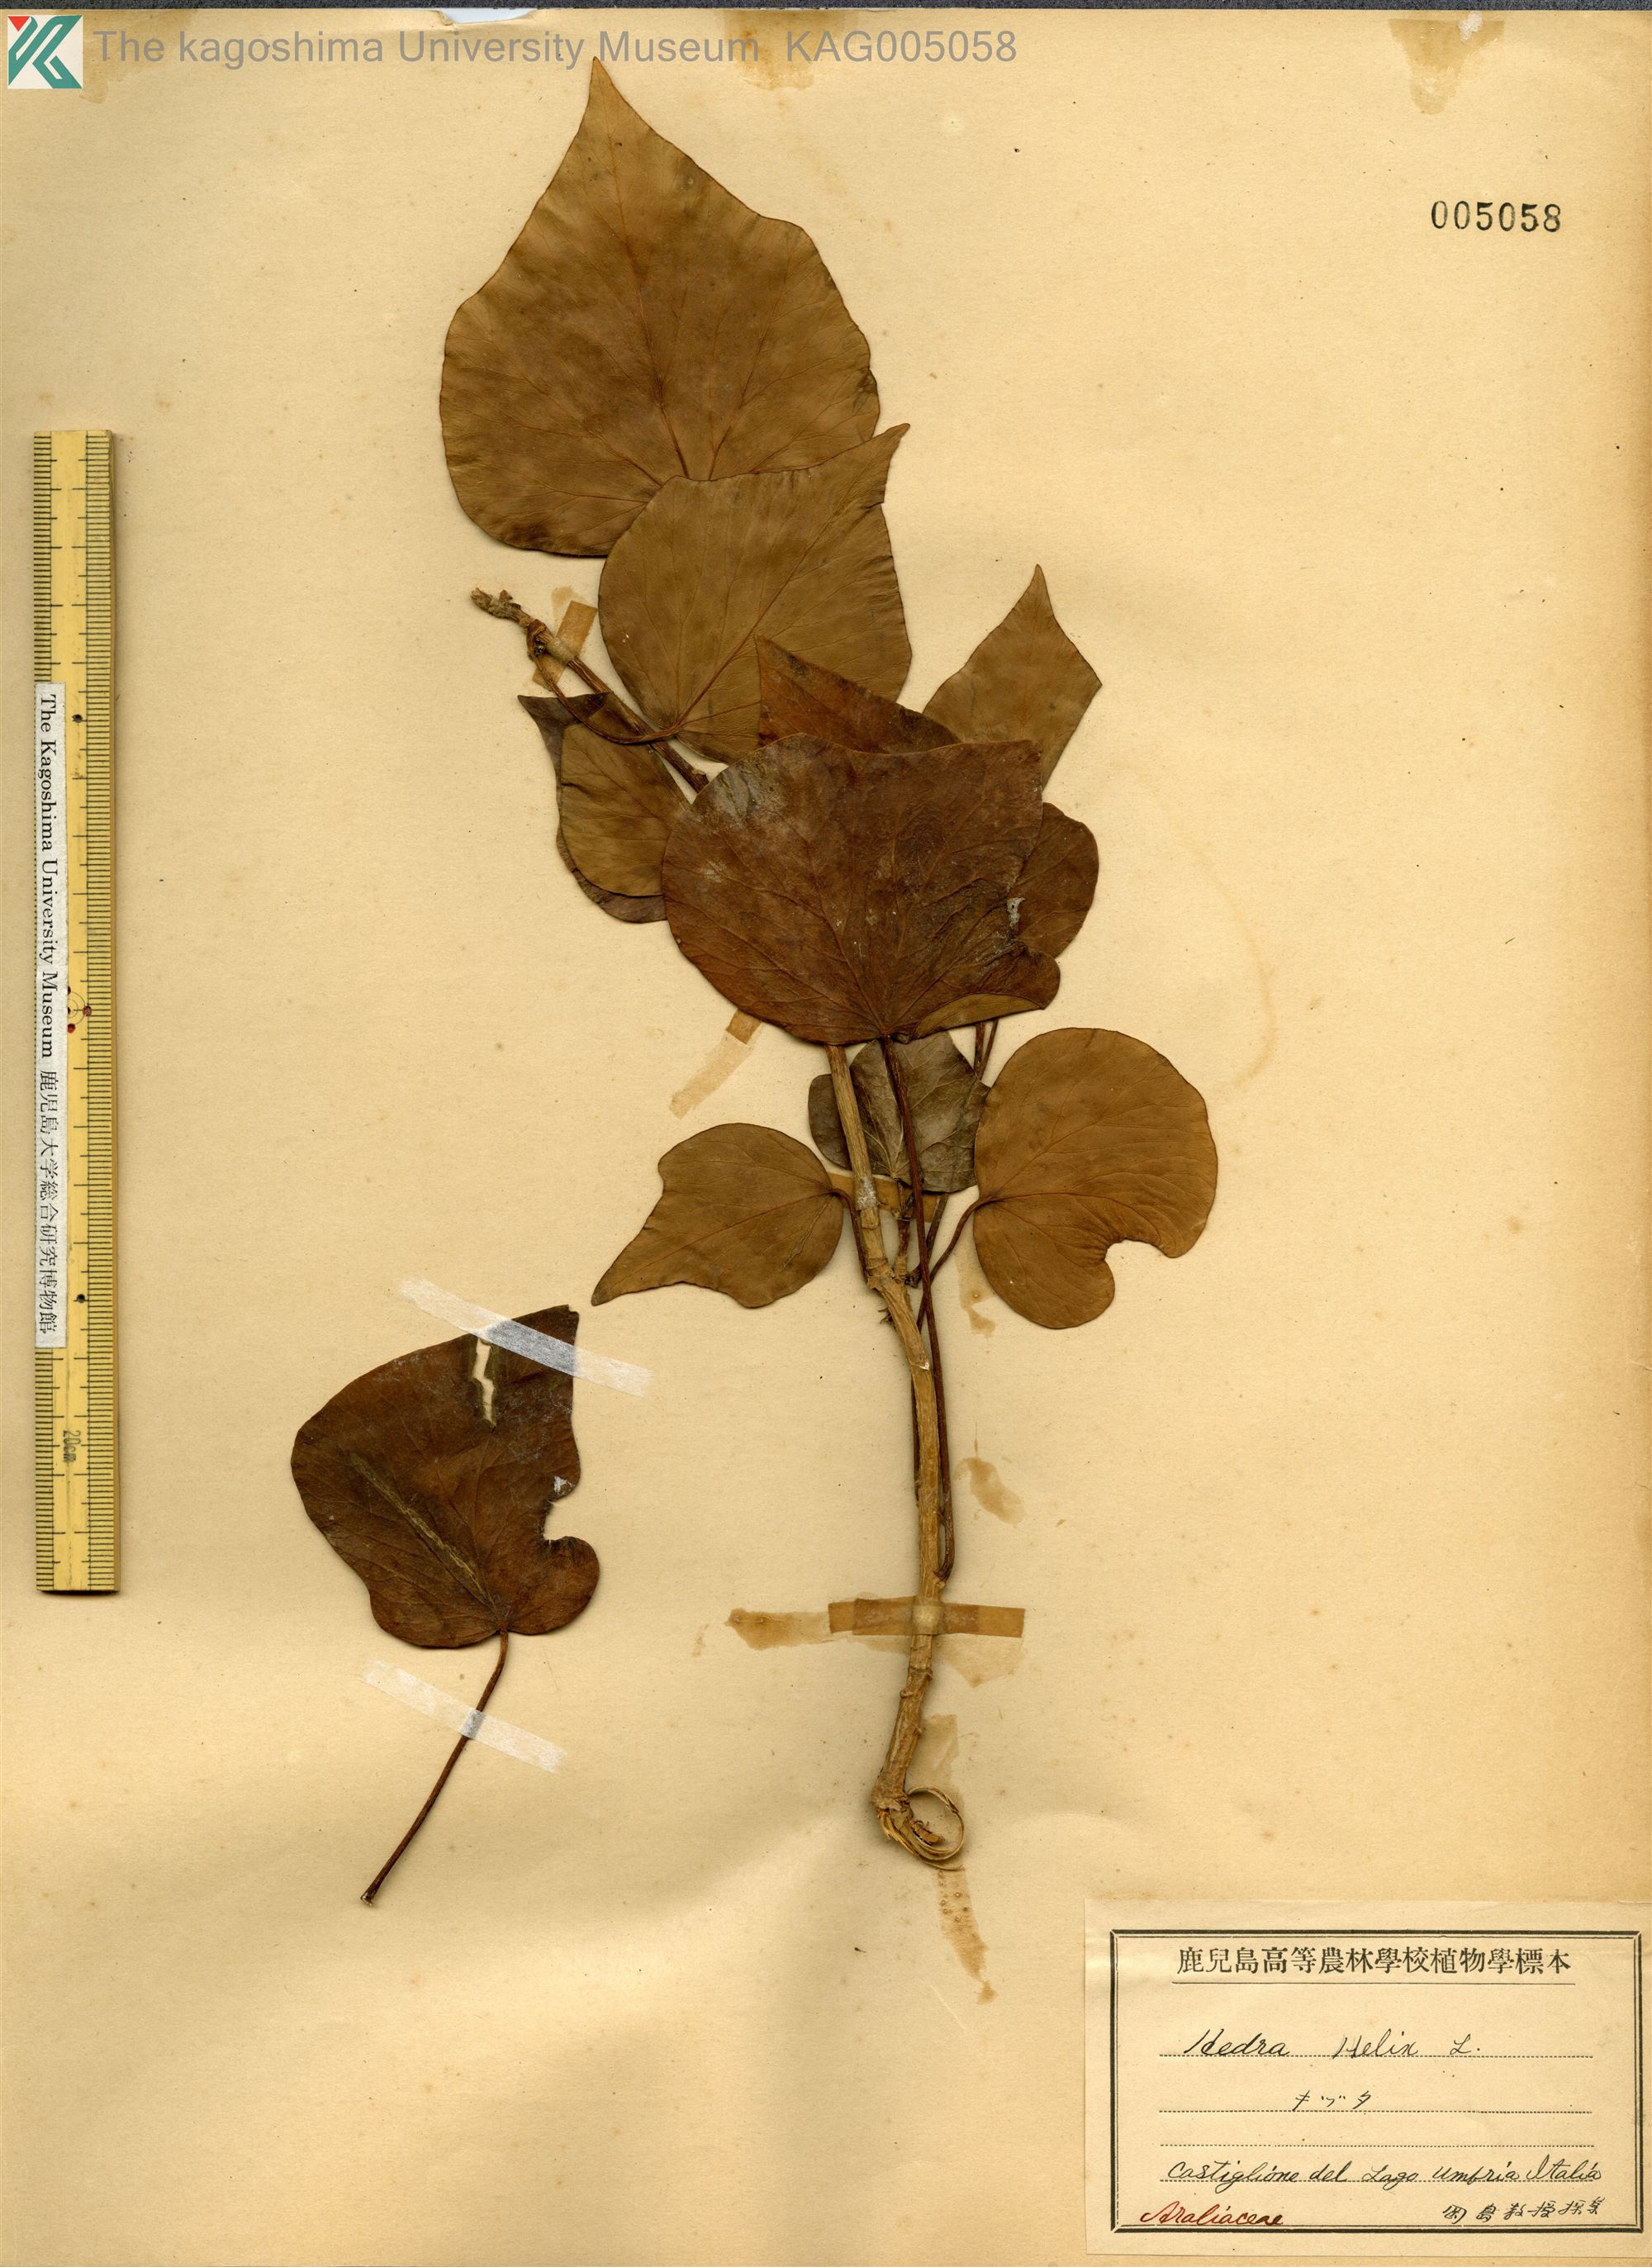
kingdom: Plantae
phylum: Tracheophyta
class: Magnoliopsida
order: Apiales
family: Araliaceae
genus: Hedera
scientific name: Hedera helix
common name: Ivy
